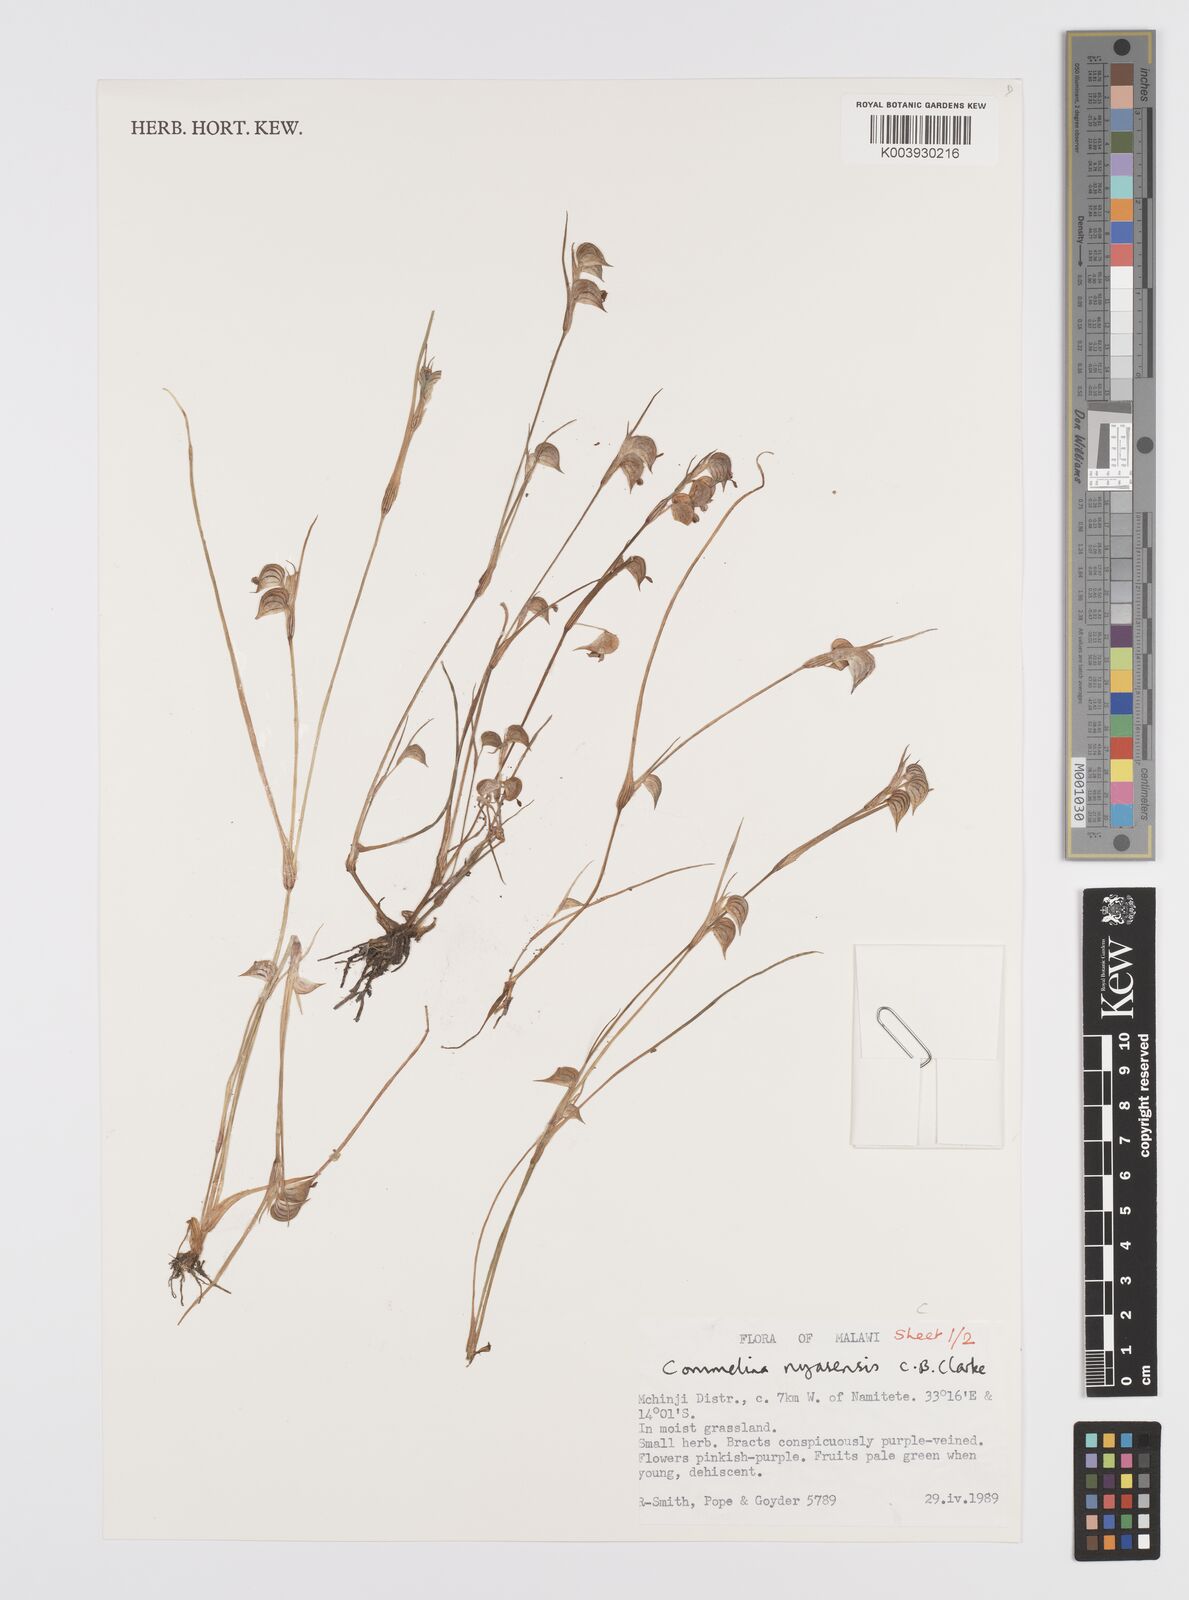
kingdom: Plantae
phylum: Tracheophyta
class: Liliopsida
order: Commelinales
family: Commelinaceae
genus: Commelina
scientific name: Commelina nyasensis
